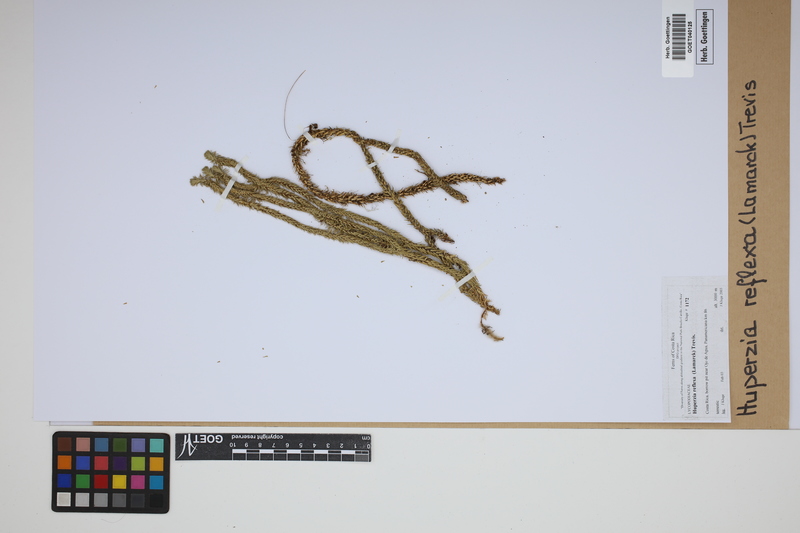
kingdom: Plantae
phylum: Tracheophyta
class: Lycopodiopsida
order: Lycopodiales
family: Lycopodiaceae
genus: Phlegmariurus
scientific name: Phlegmariurus reflexus
